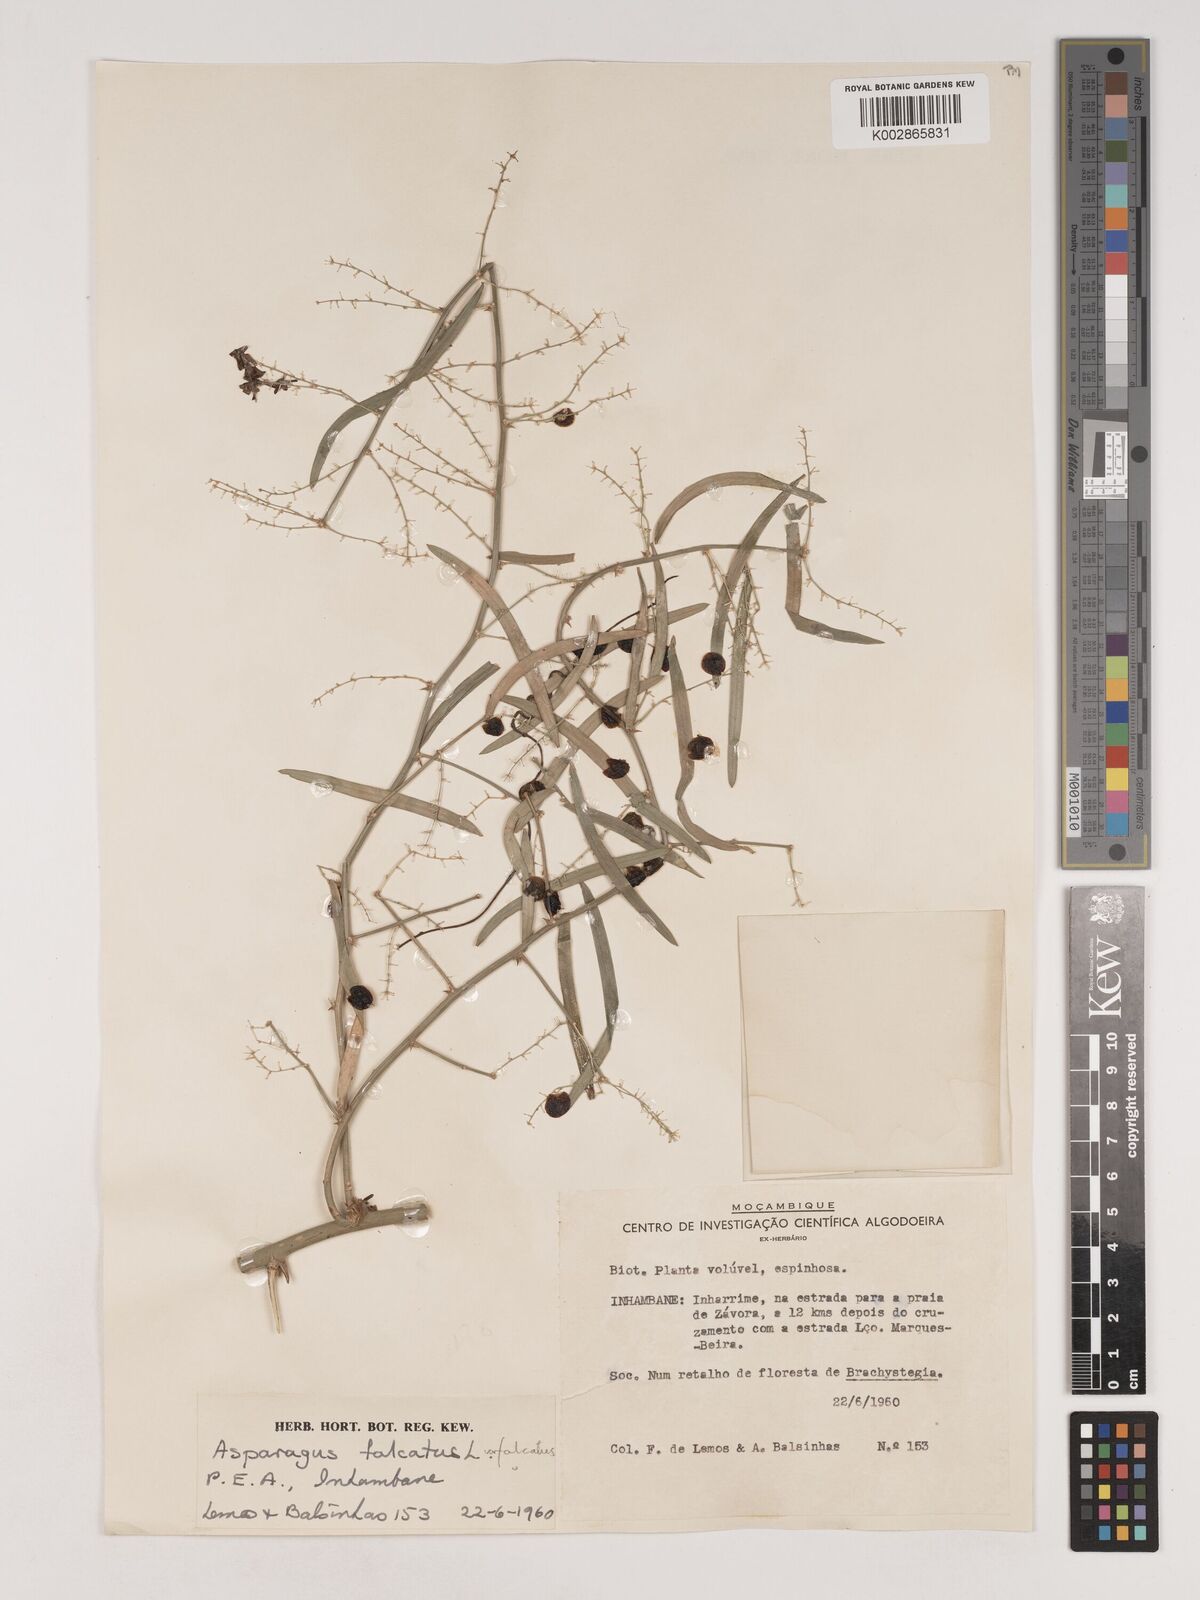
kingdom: Plantae
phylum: Tracheophyta
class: Liliopsida
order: Asparagales
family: Asparagaceae
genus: Asparagus
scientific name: Asparagus falcatus
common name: Asparagus
